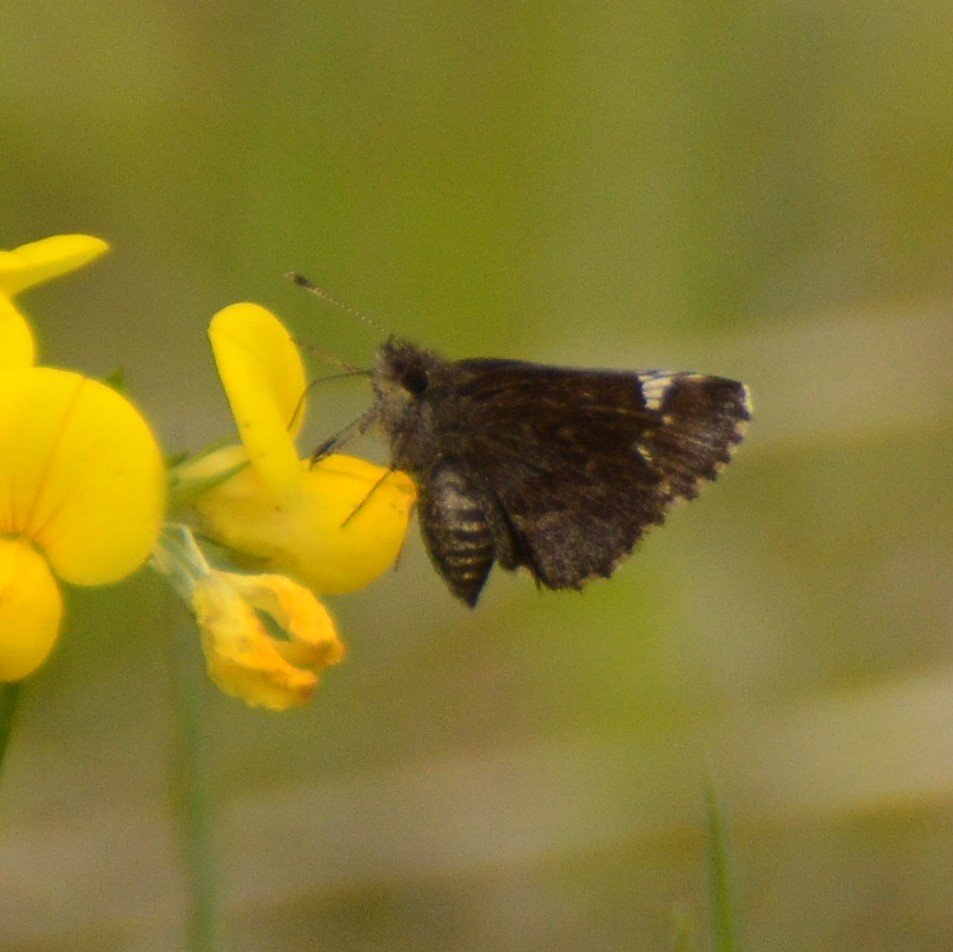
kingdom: Animalia
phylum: Arthropoda
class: Insecta
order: Lepidoptera
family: Hesperiidae
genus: Mastor
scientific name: Mastor vialis
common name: Common Roadside-Skipper
